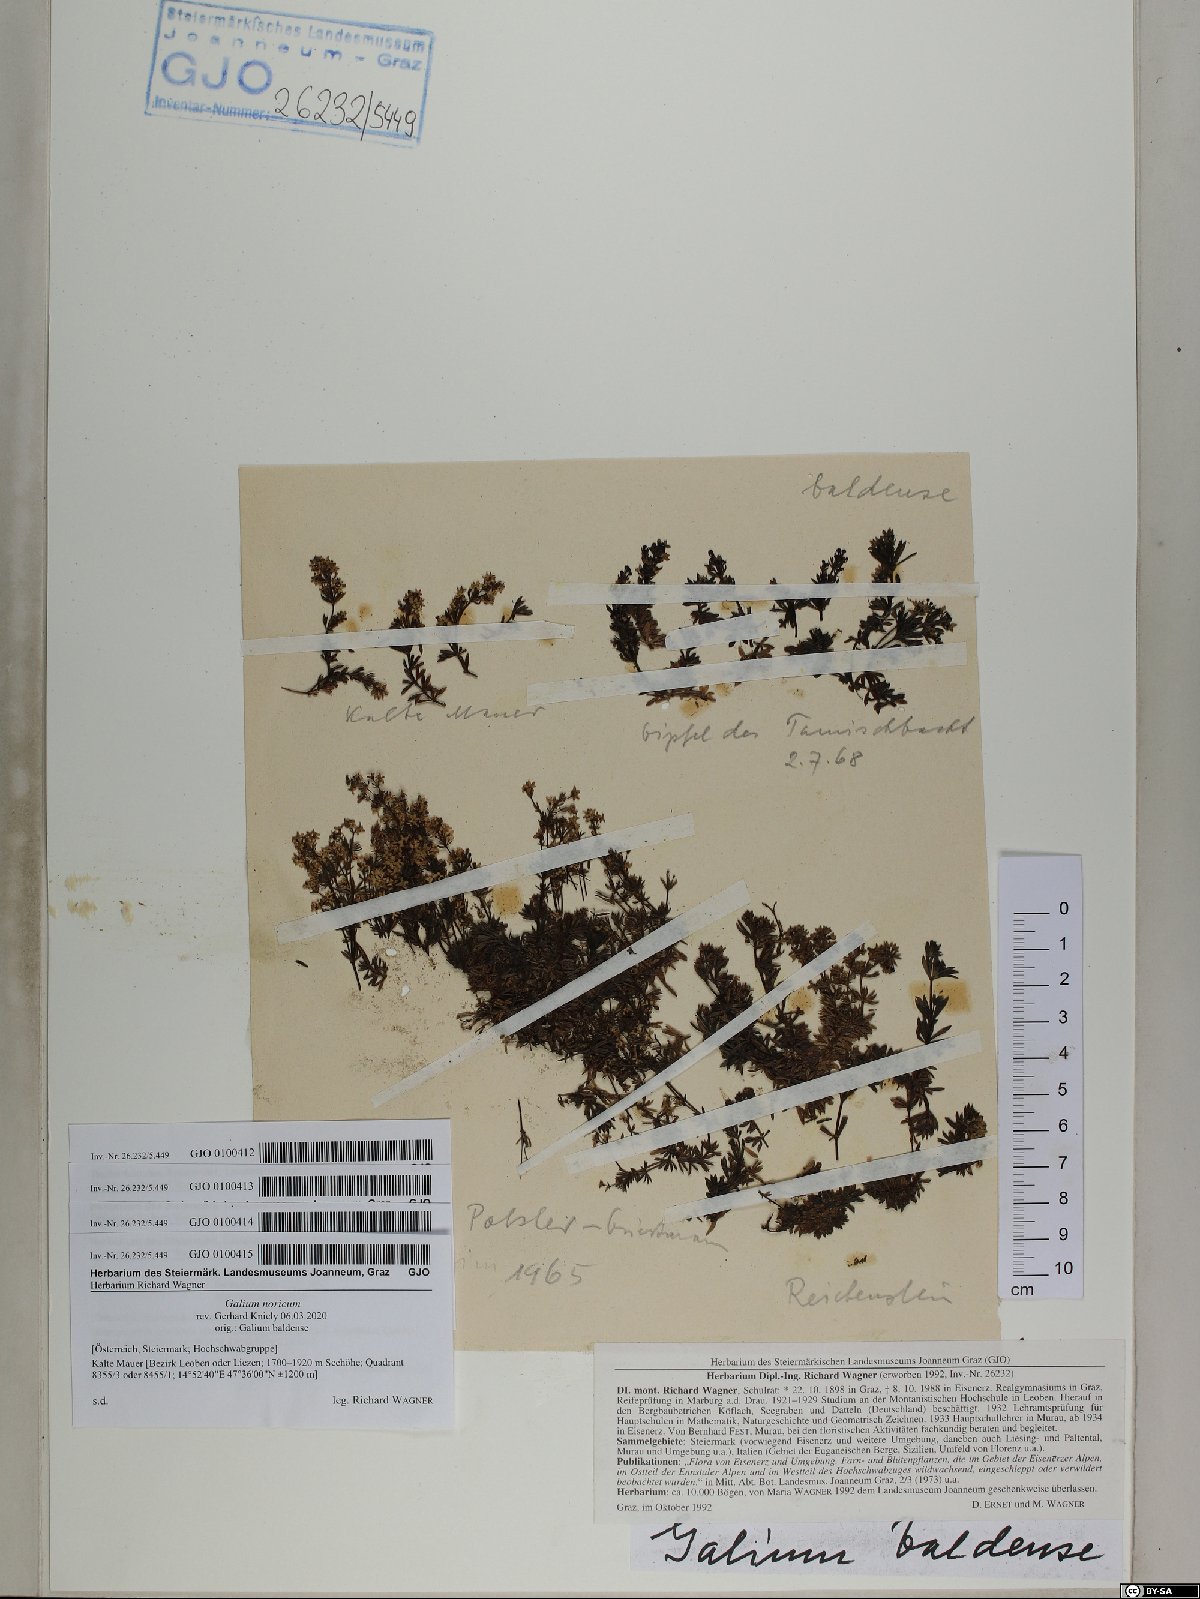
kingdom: Plantae
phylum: Tracheophyta
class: Magnoliopsida
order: Gentianales
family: Rubiaceae
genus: Galium
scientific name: Galium noricum
